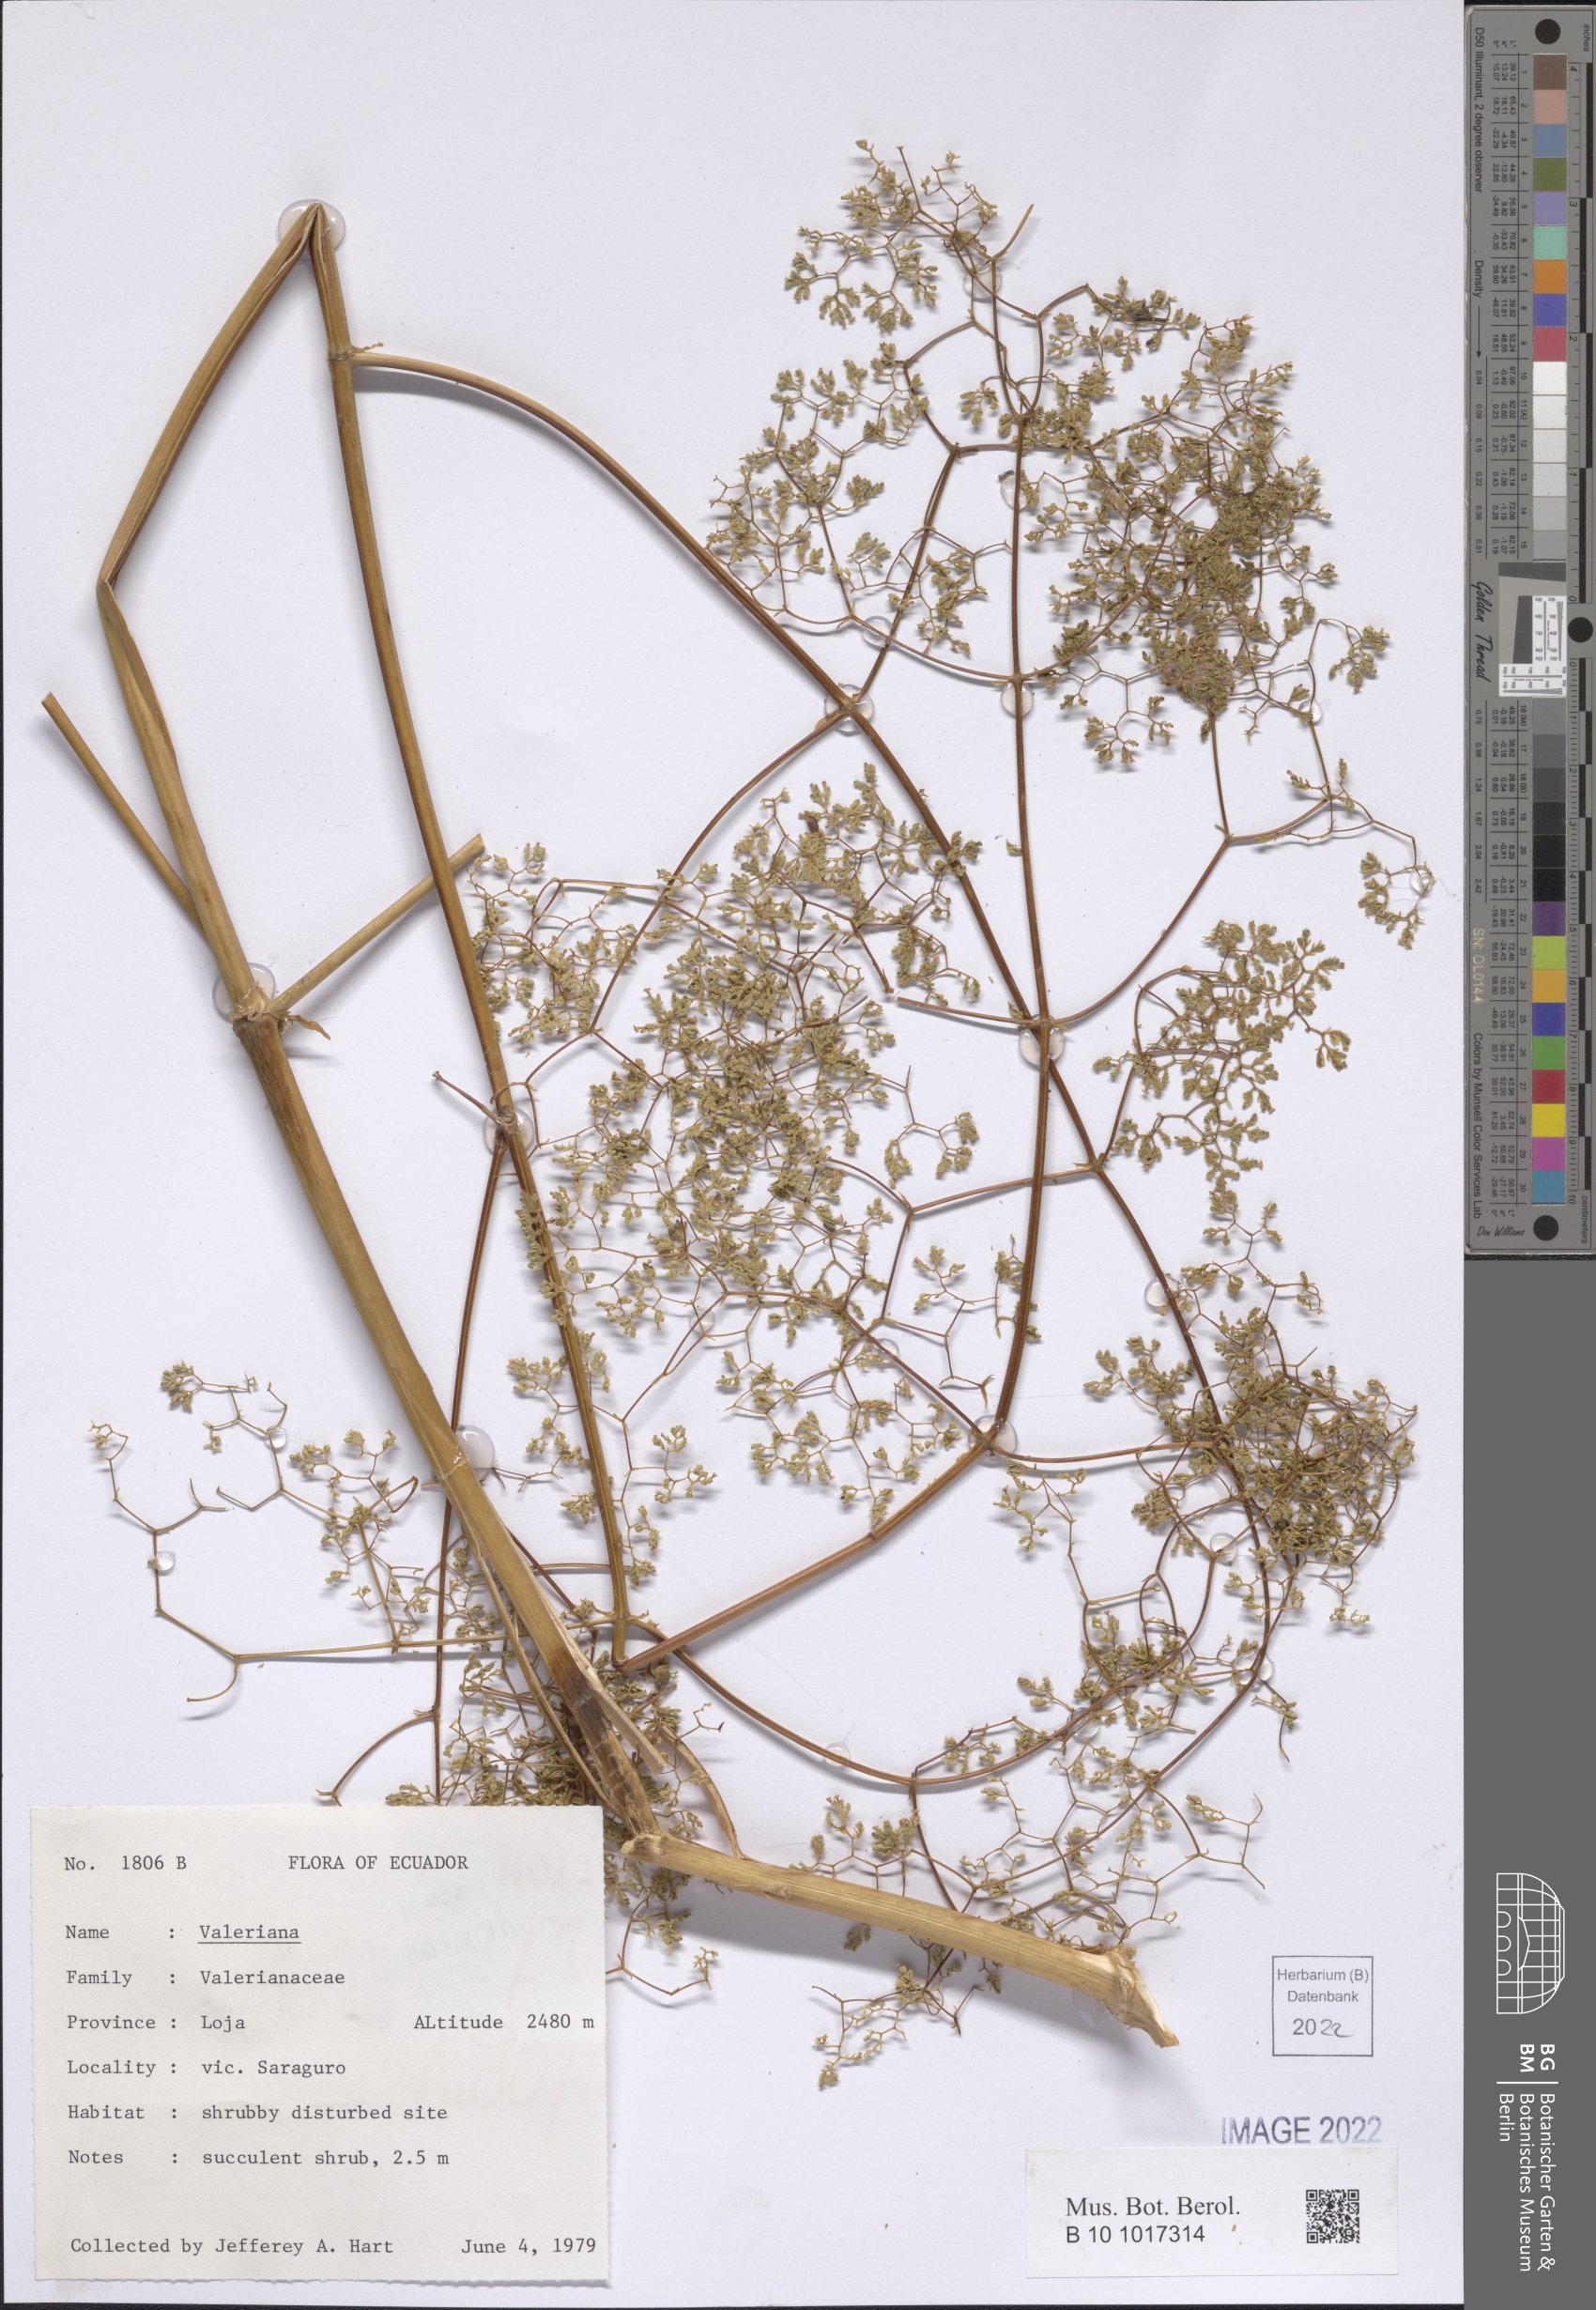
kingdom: Plantae
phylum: Tracheophyta
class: Magnoliopsida
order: Dipsacales
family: Caprifoliaceae
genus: Valeriana
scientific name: Valeriana
